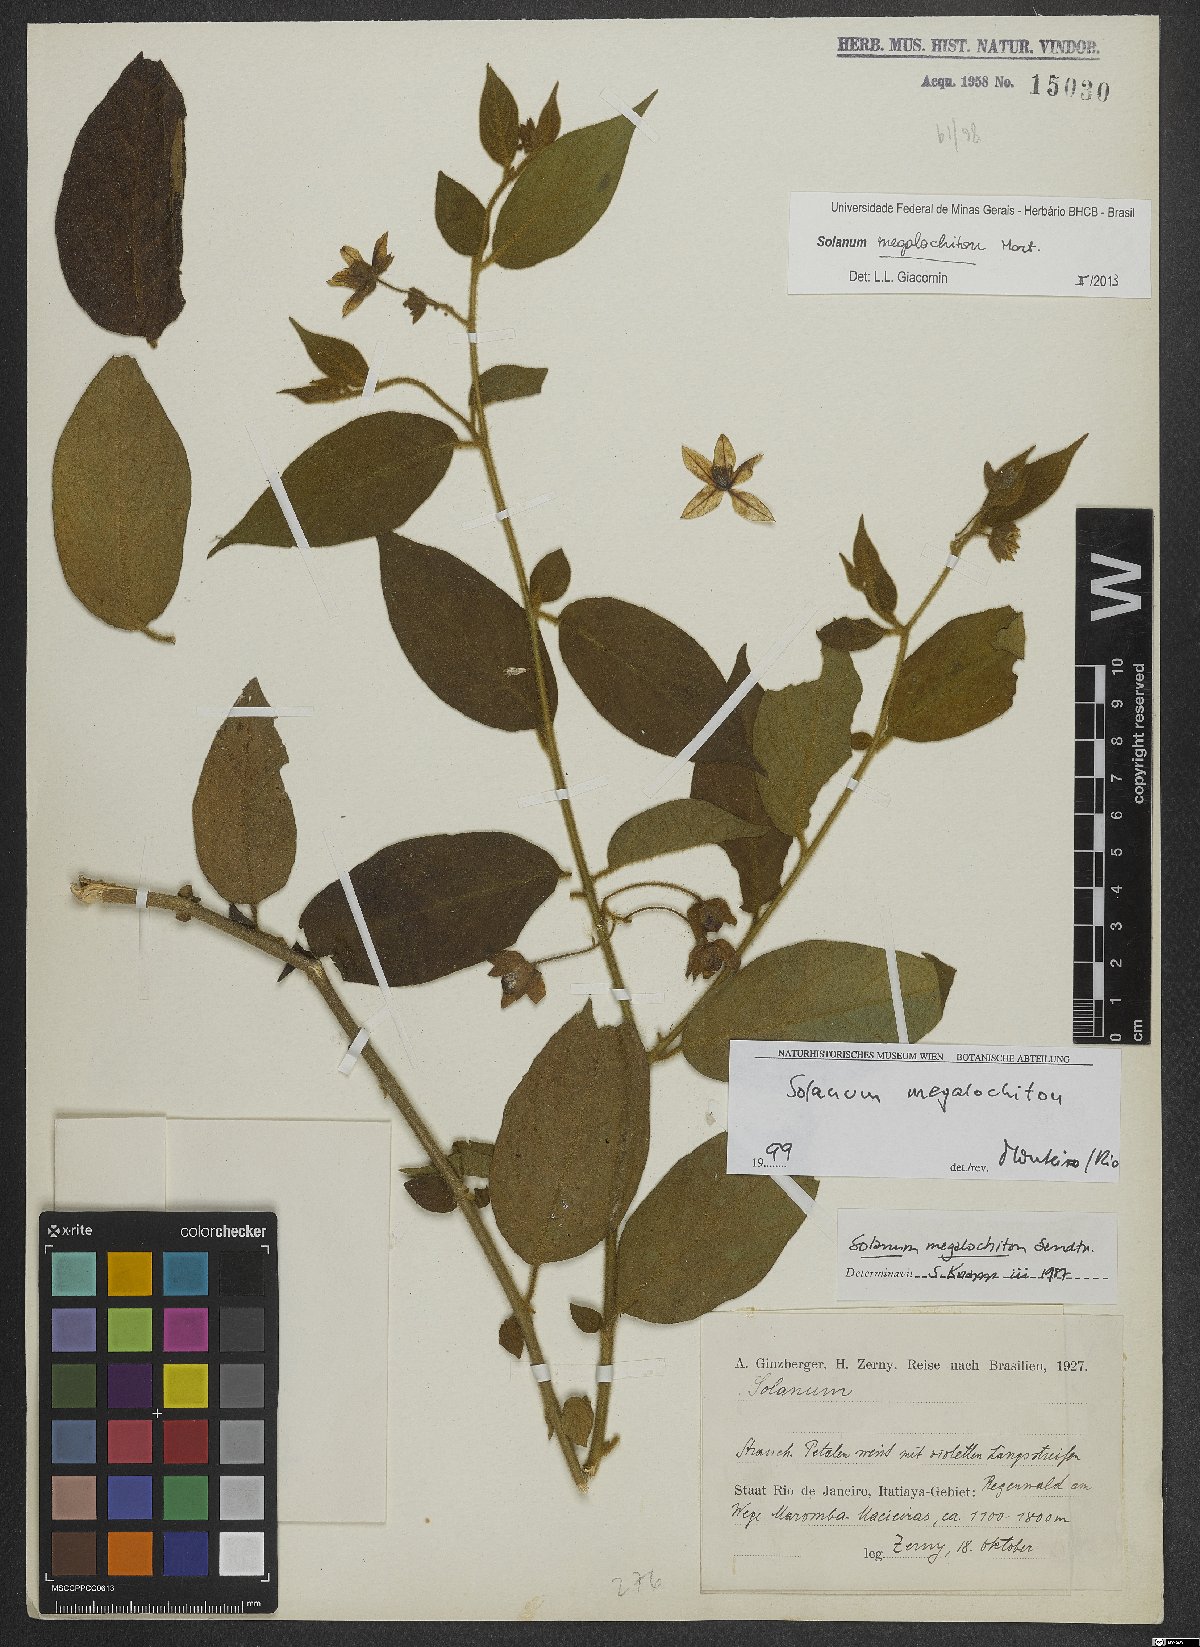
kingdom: Plantae
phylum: Tracheophyta
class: Magnoliopsida
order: Solanales
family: Solanaceae
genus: Solanum
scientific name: Solanum megalochiton
